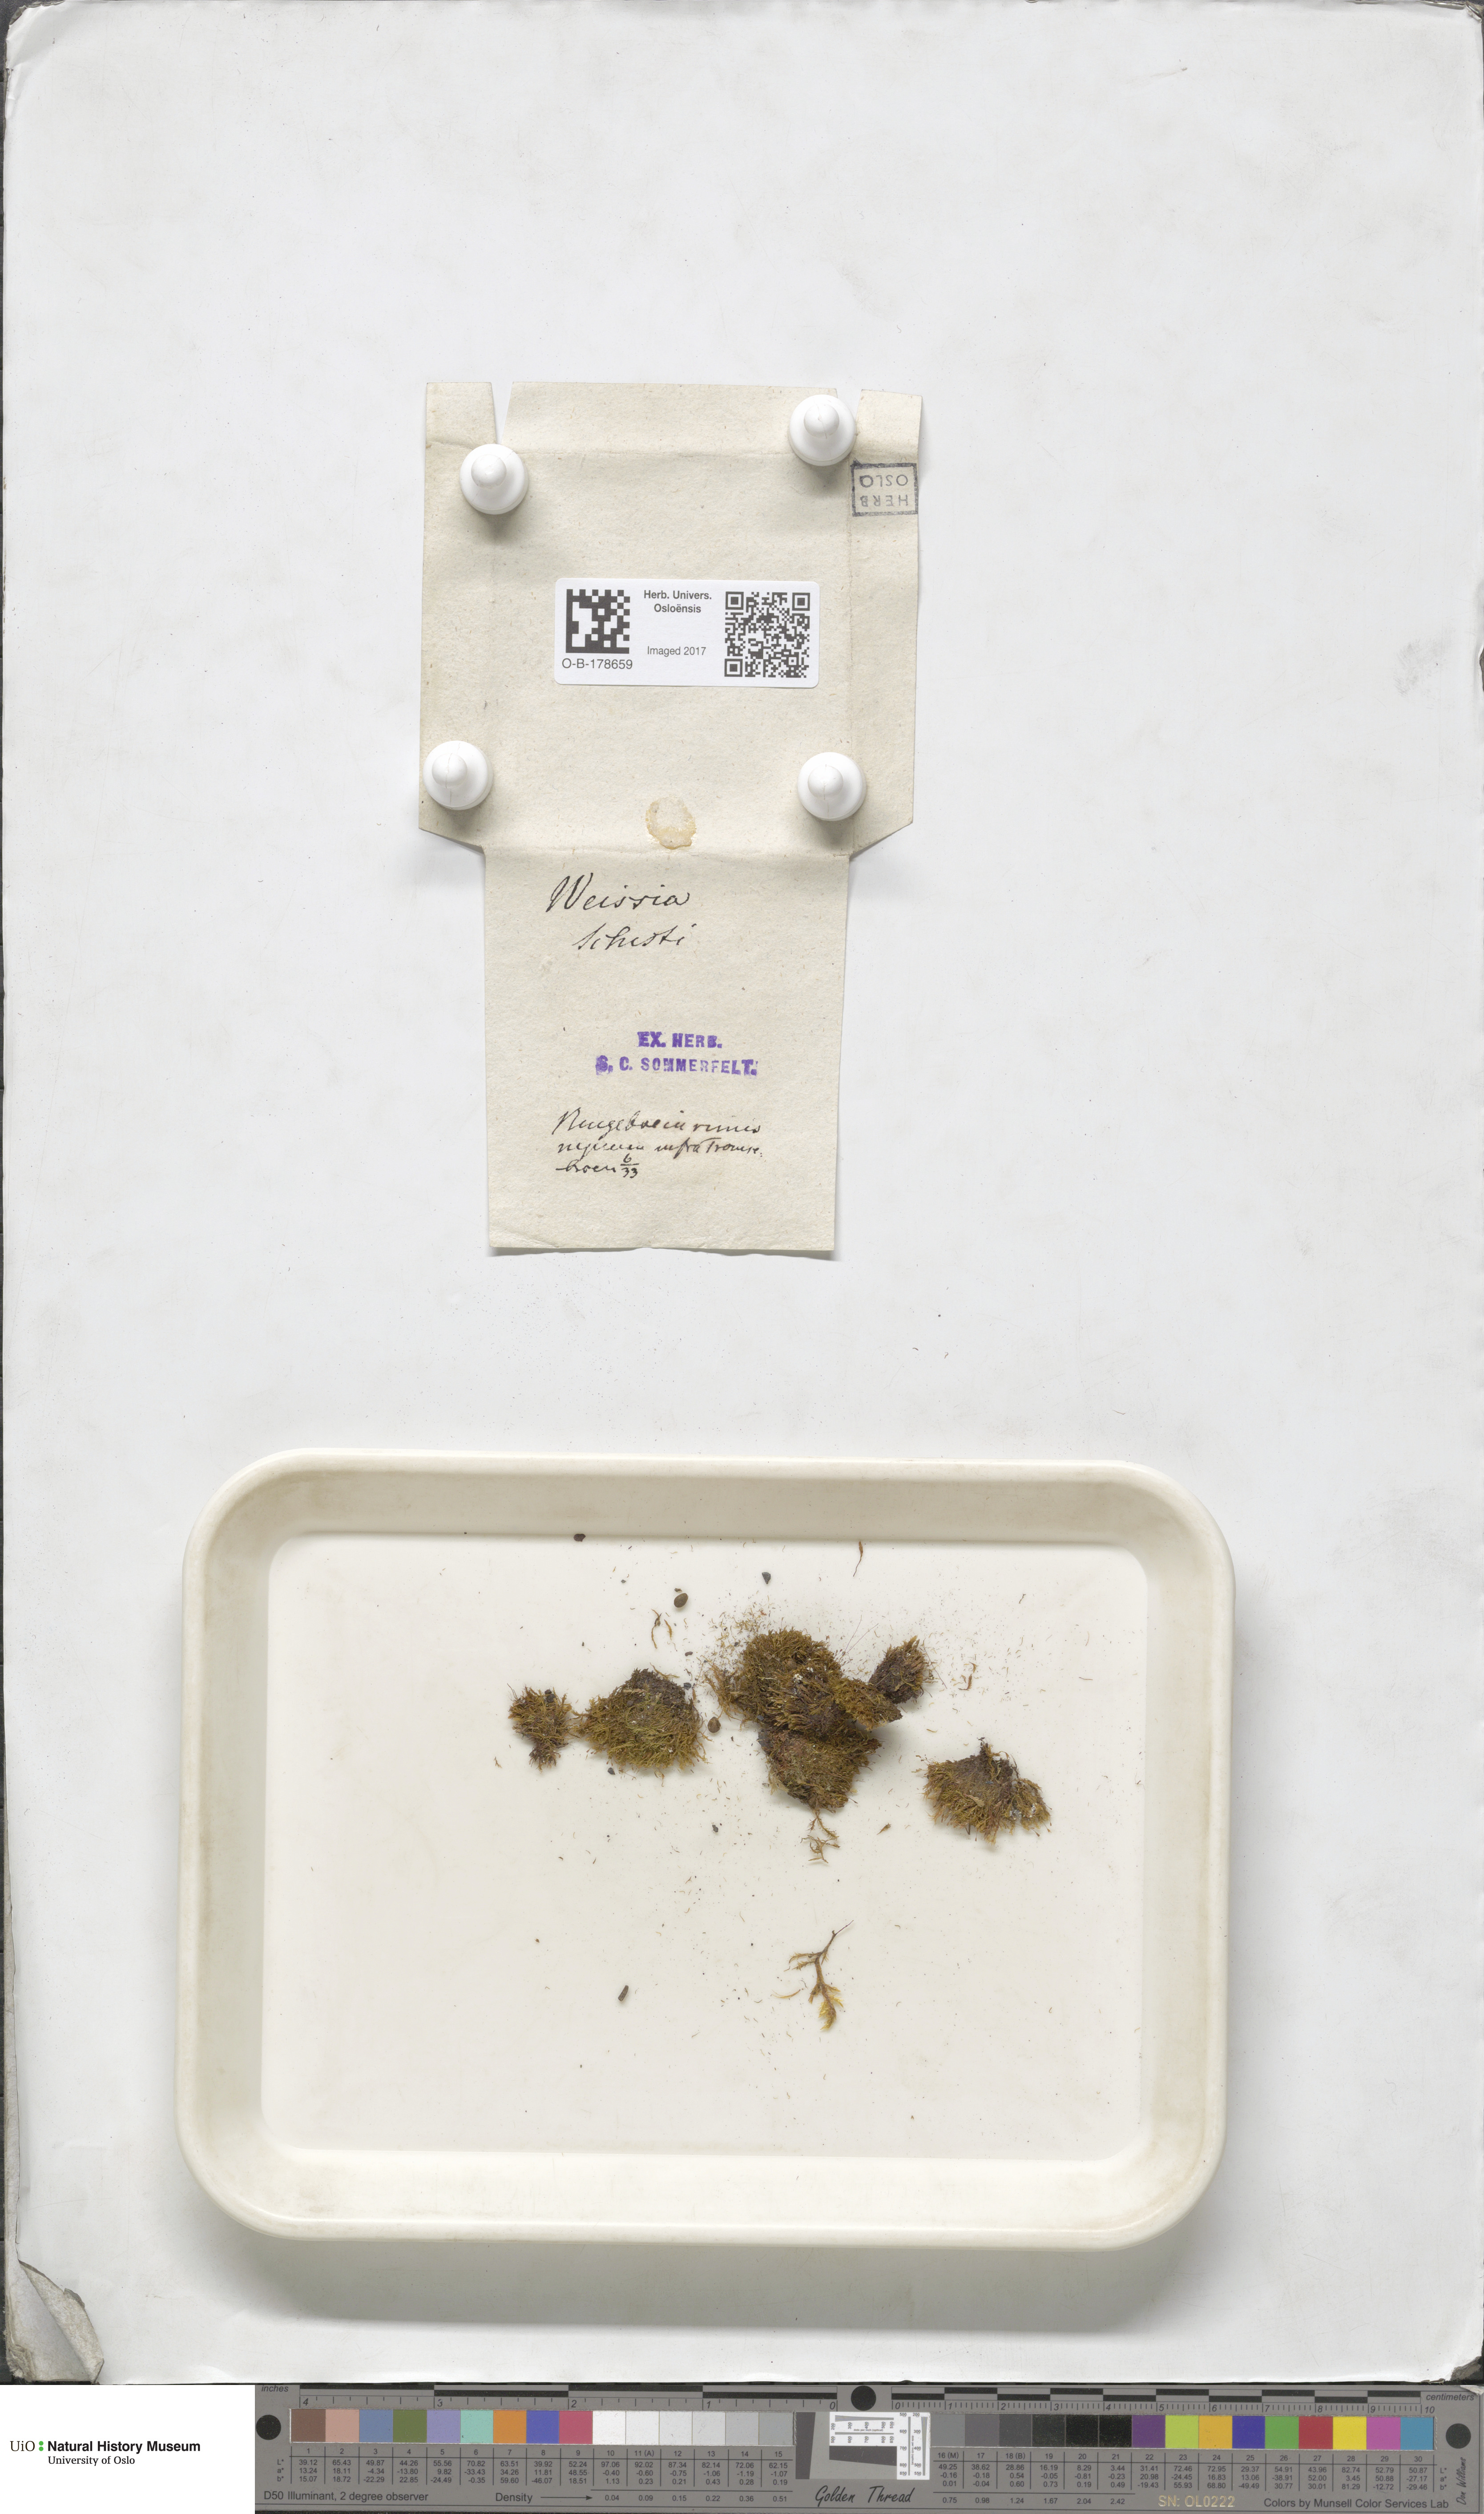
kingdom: Plantae
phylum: Bryophyta
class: Bryopsida
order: Dicranales
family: Rhabdoweisiaceae
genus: Cnestrum
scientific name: Cnestrum schisti
